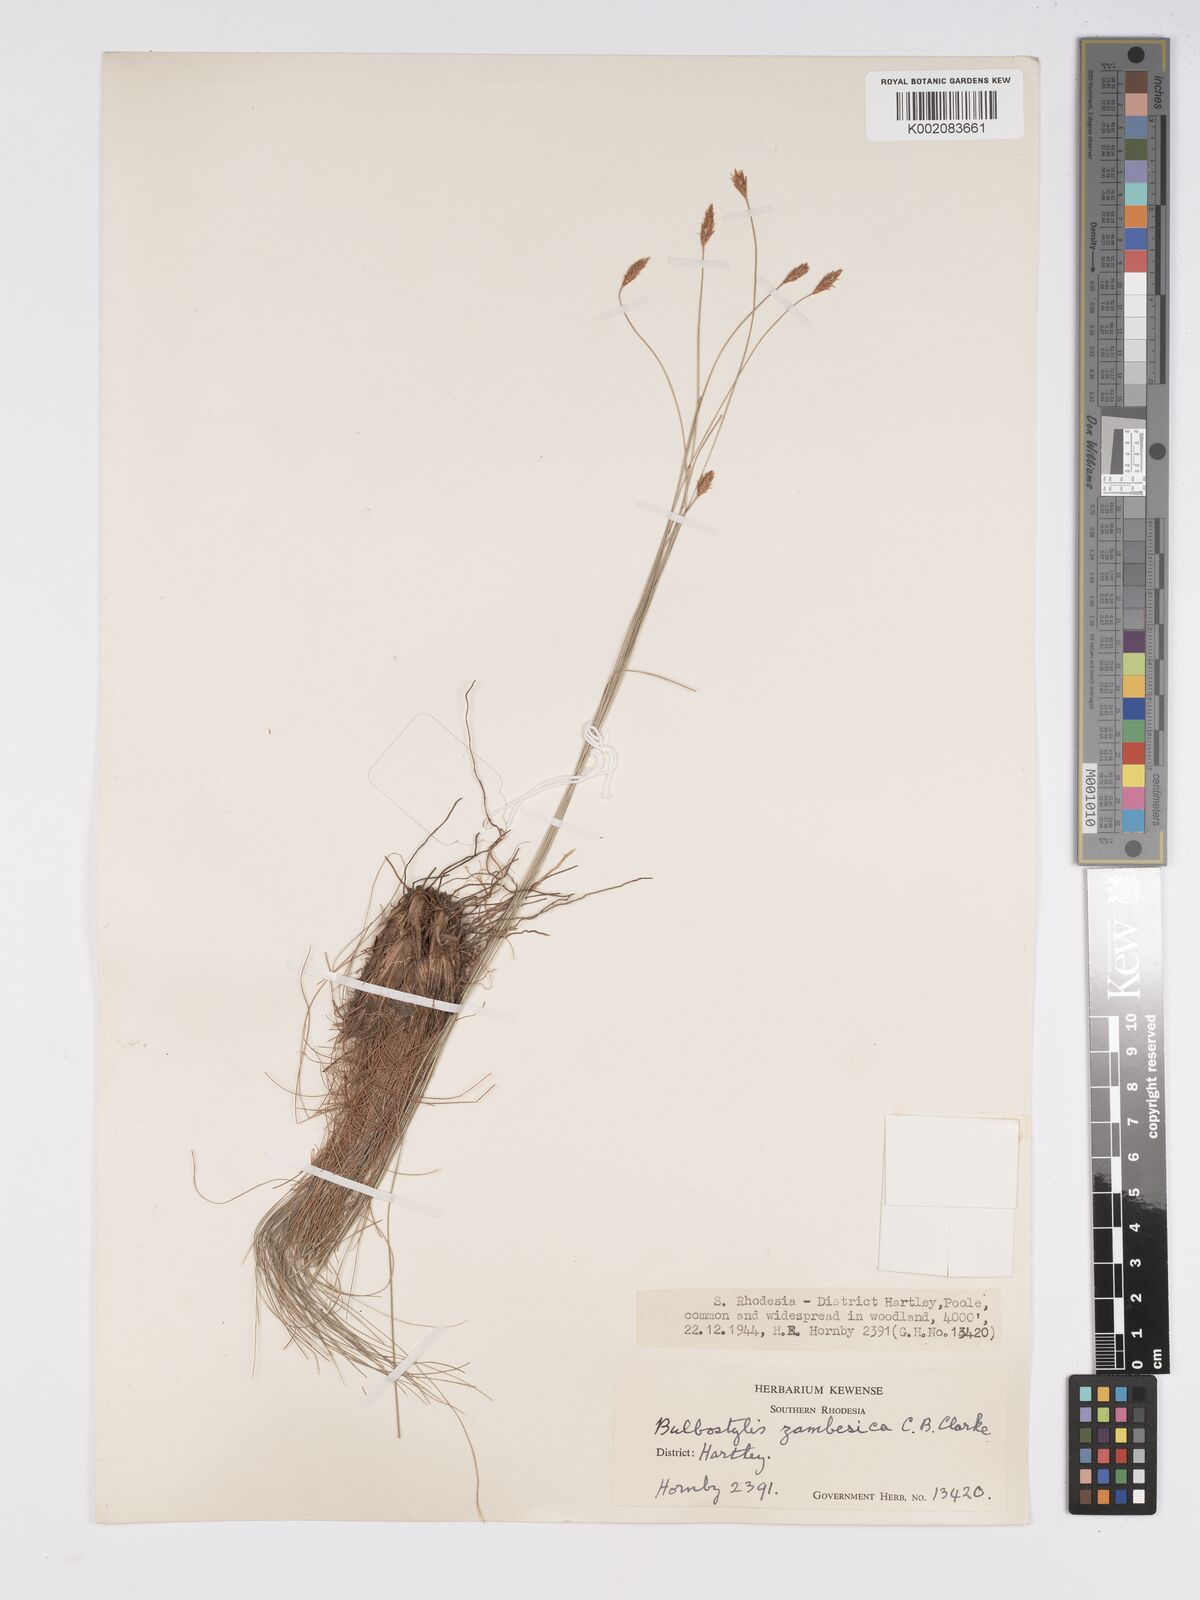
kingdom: Plantae
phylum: Tracheophyta
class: Liliopsida
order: Poales
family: Cyperaceae
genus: Bulbostylis
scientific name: Bulbostylis macra
